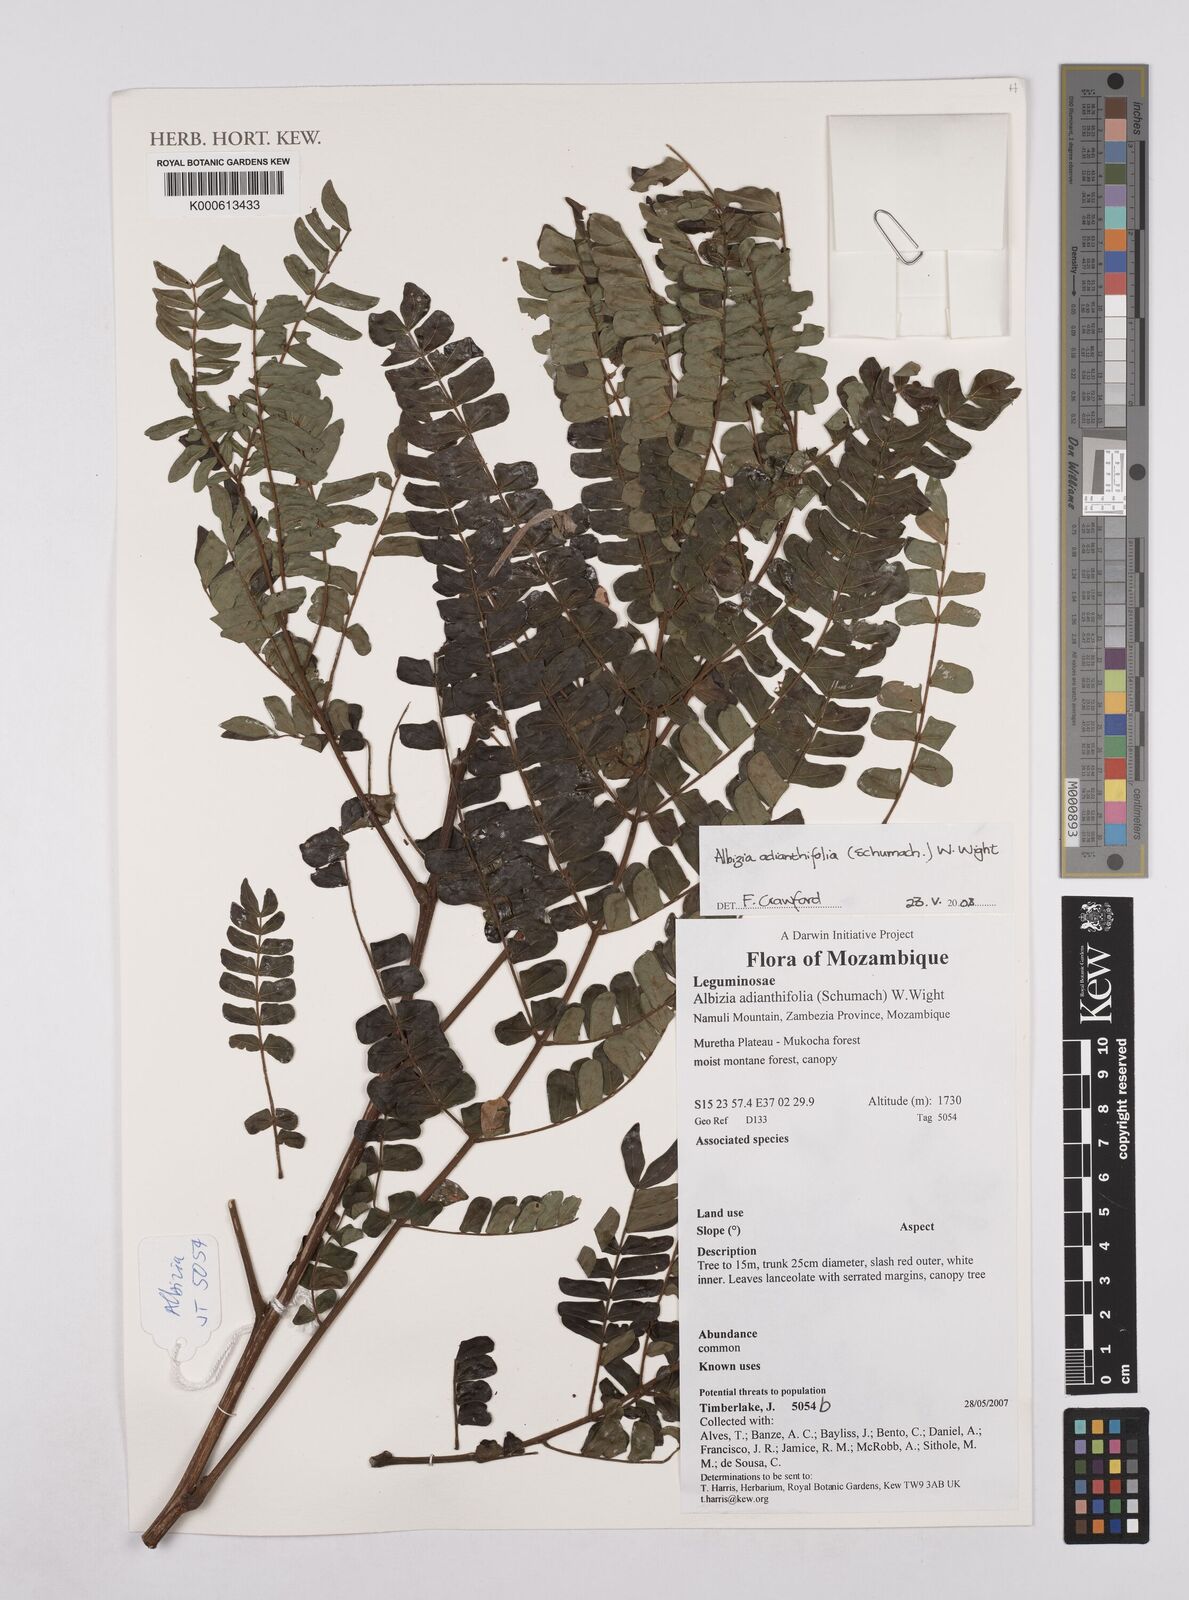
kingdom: Plantae
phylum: Tracheophyta
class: Magnoliopsida
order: Fabales
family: Fabaceae
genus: Albizia
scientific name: Albizia adianthifolia
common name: West african albizia
